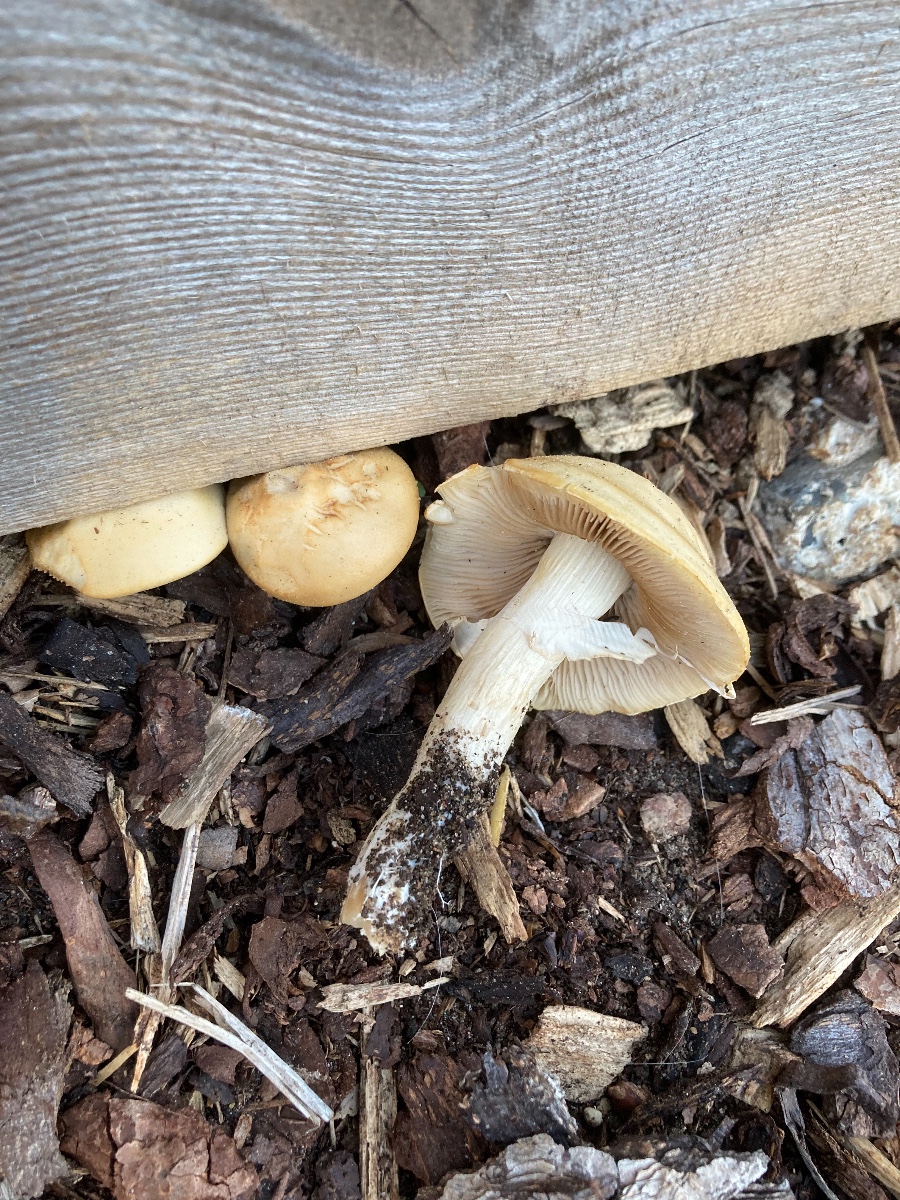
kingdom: Fungi
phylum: Basidiomycota
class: Agaricomycetes
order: Agaricales
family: Strophariaceae
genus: Agrocybe
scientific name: Agrocybe praecox
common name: tidlig agerhat
